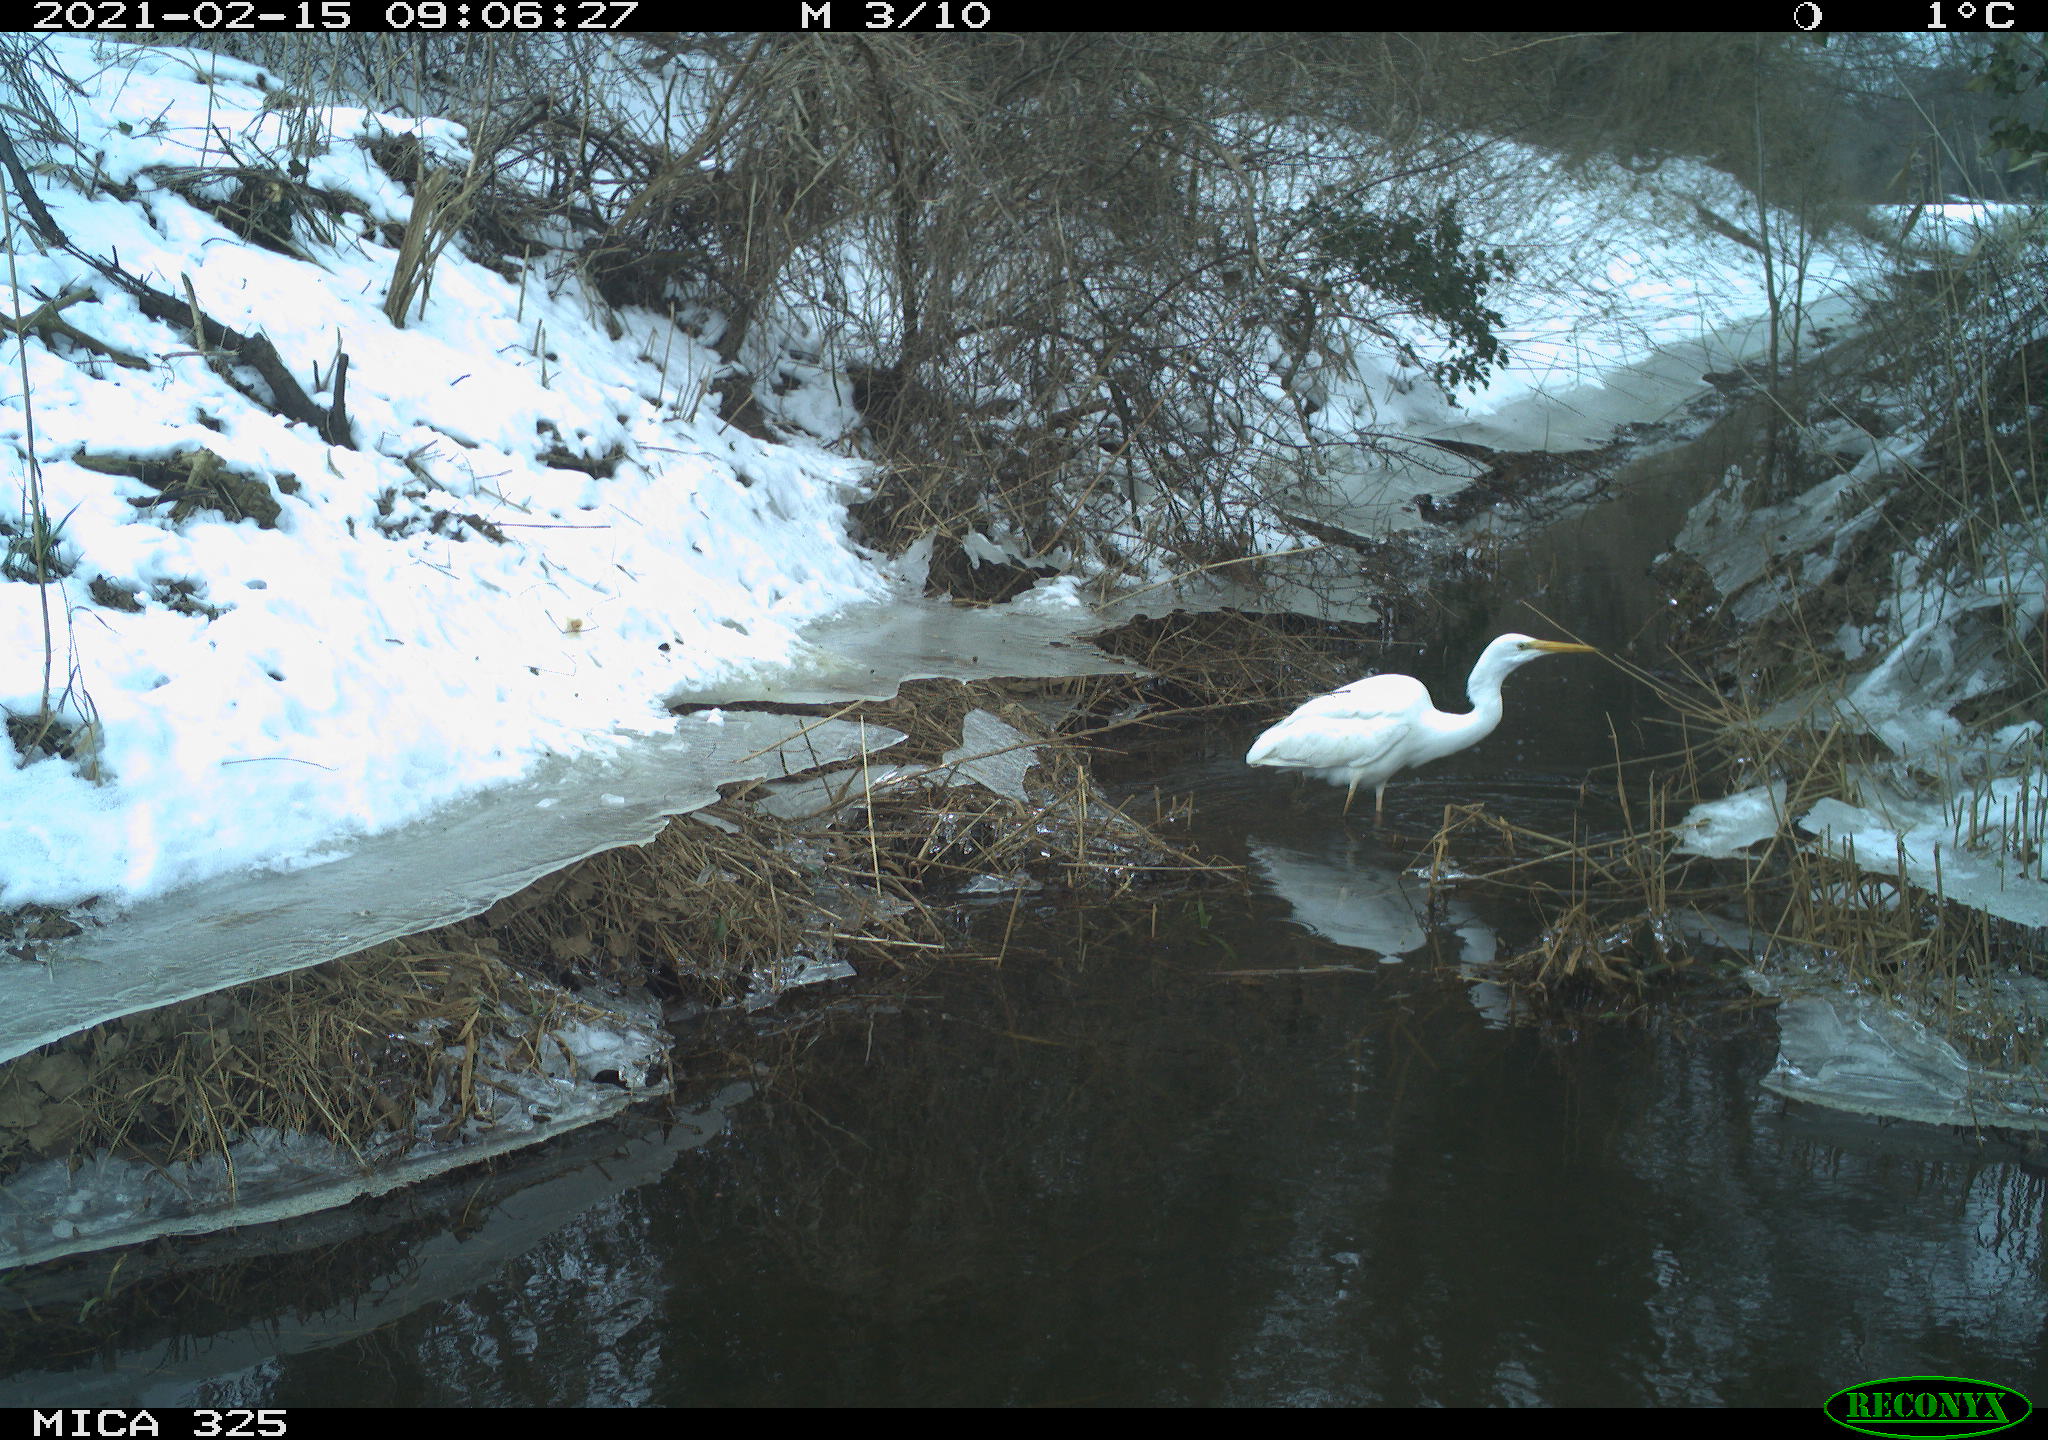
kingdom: Animalia
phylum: Chordata
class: Aves
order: Pelecaniformes
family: Ardeidae
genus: Ardea
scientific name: Ardea alba
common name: Great egret
